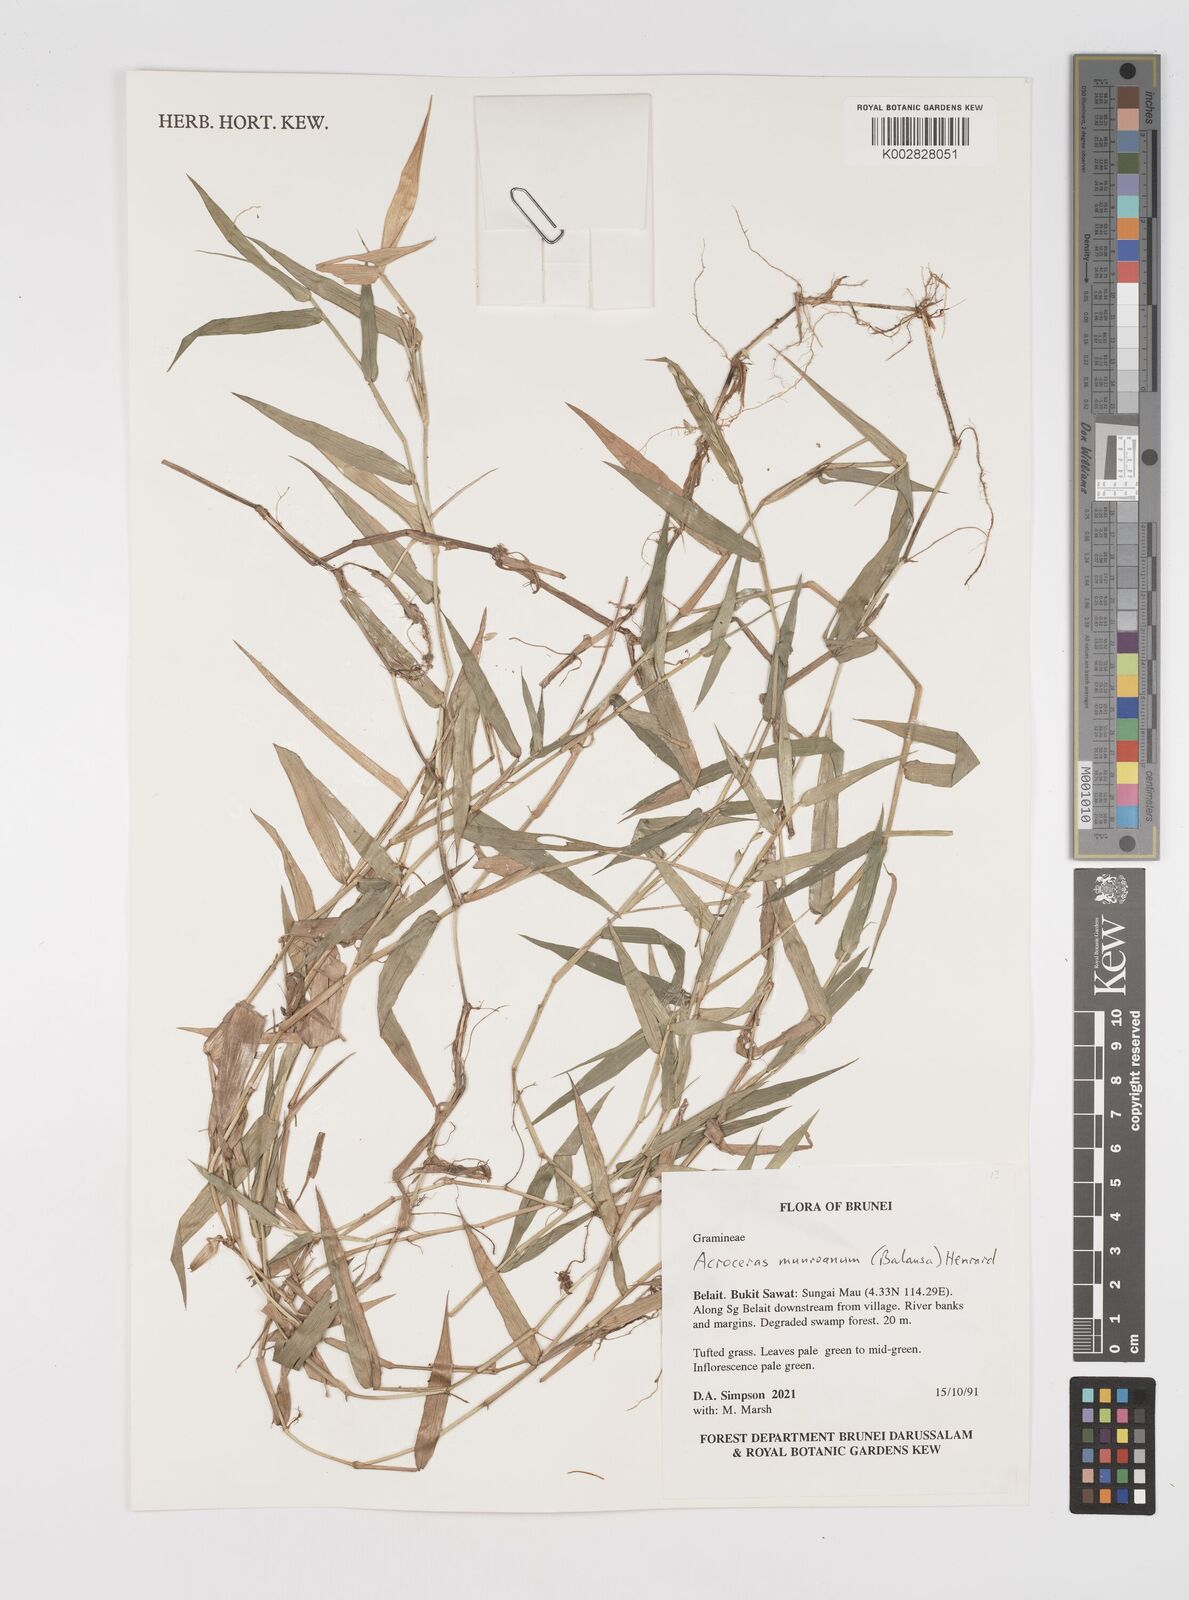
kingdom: Plantae
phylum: Tracheophyta
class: Liliopsida
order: Poales
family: Poaceae
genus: Acroceras
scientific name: Acroceras munroanum
